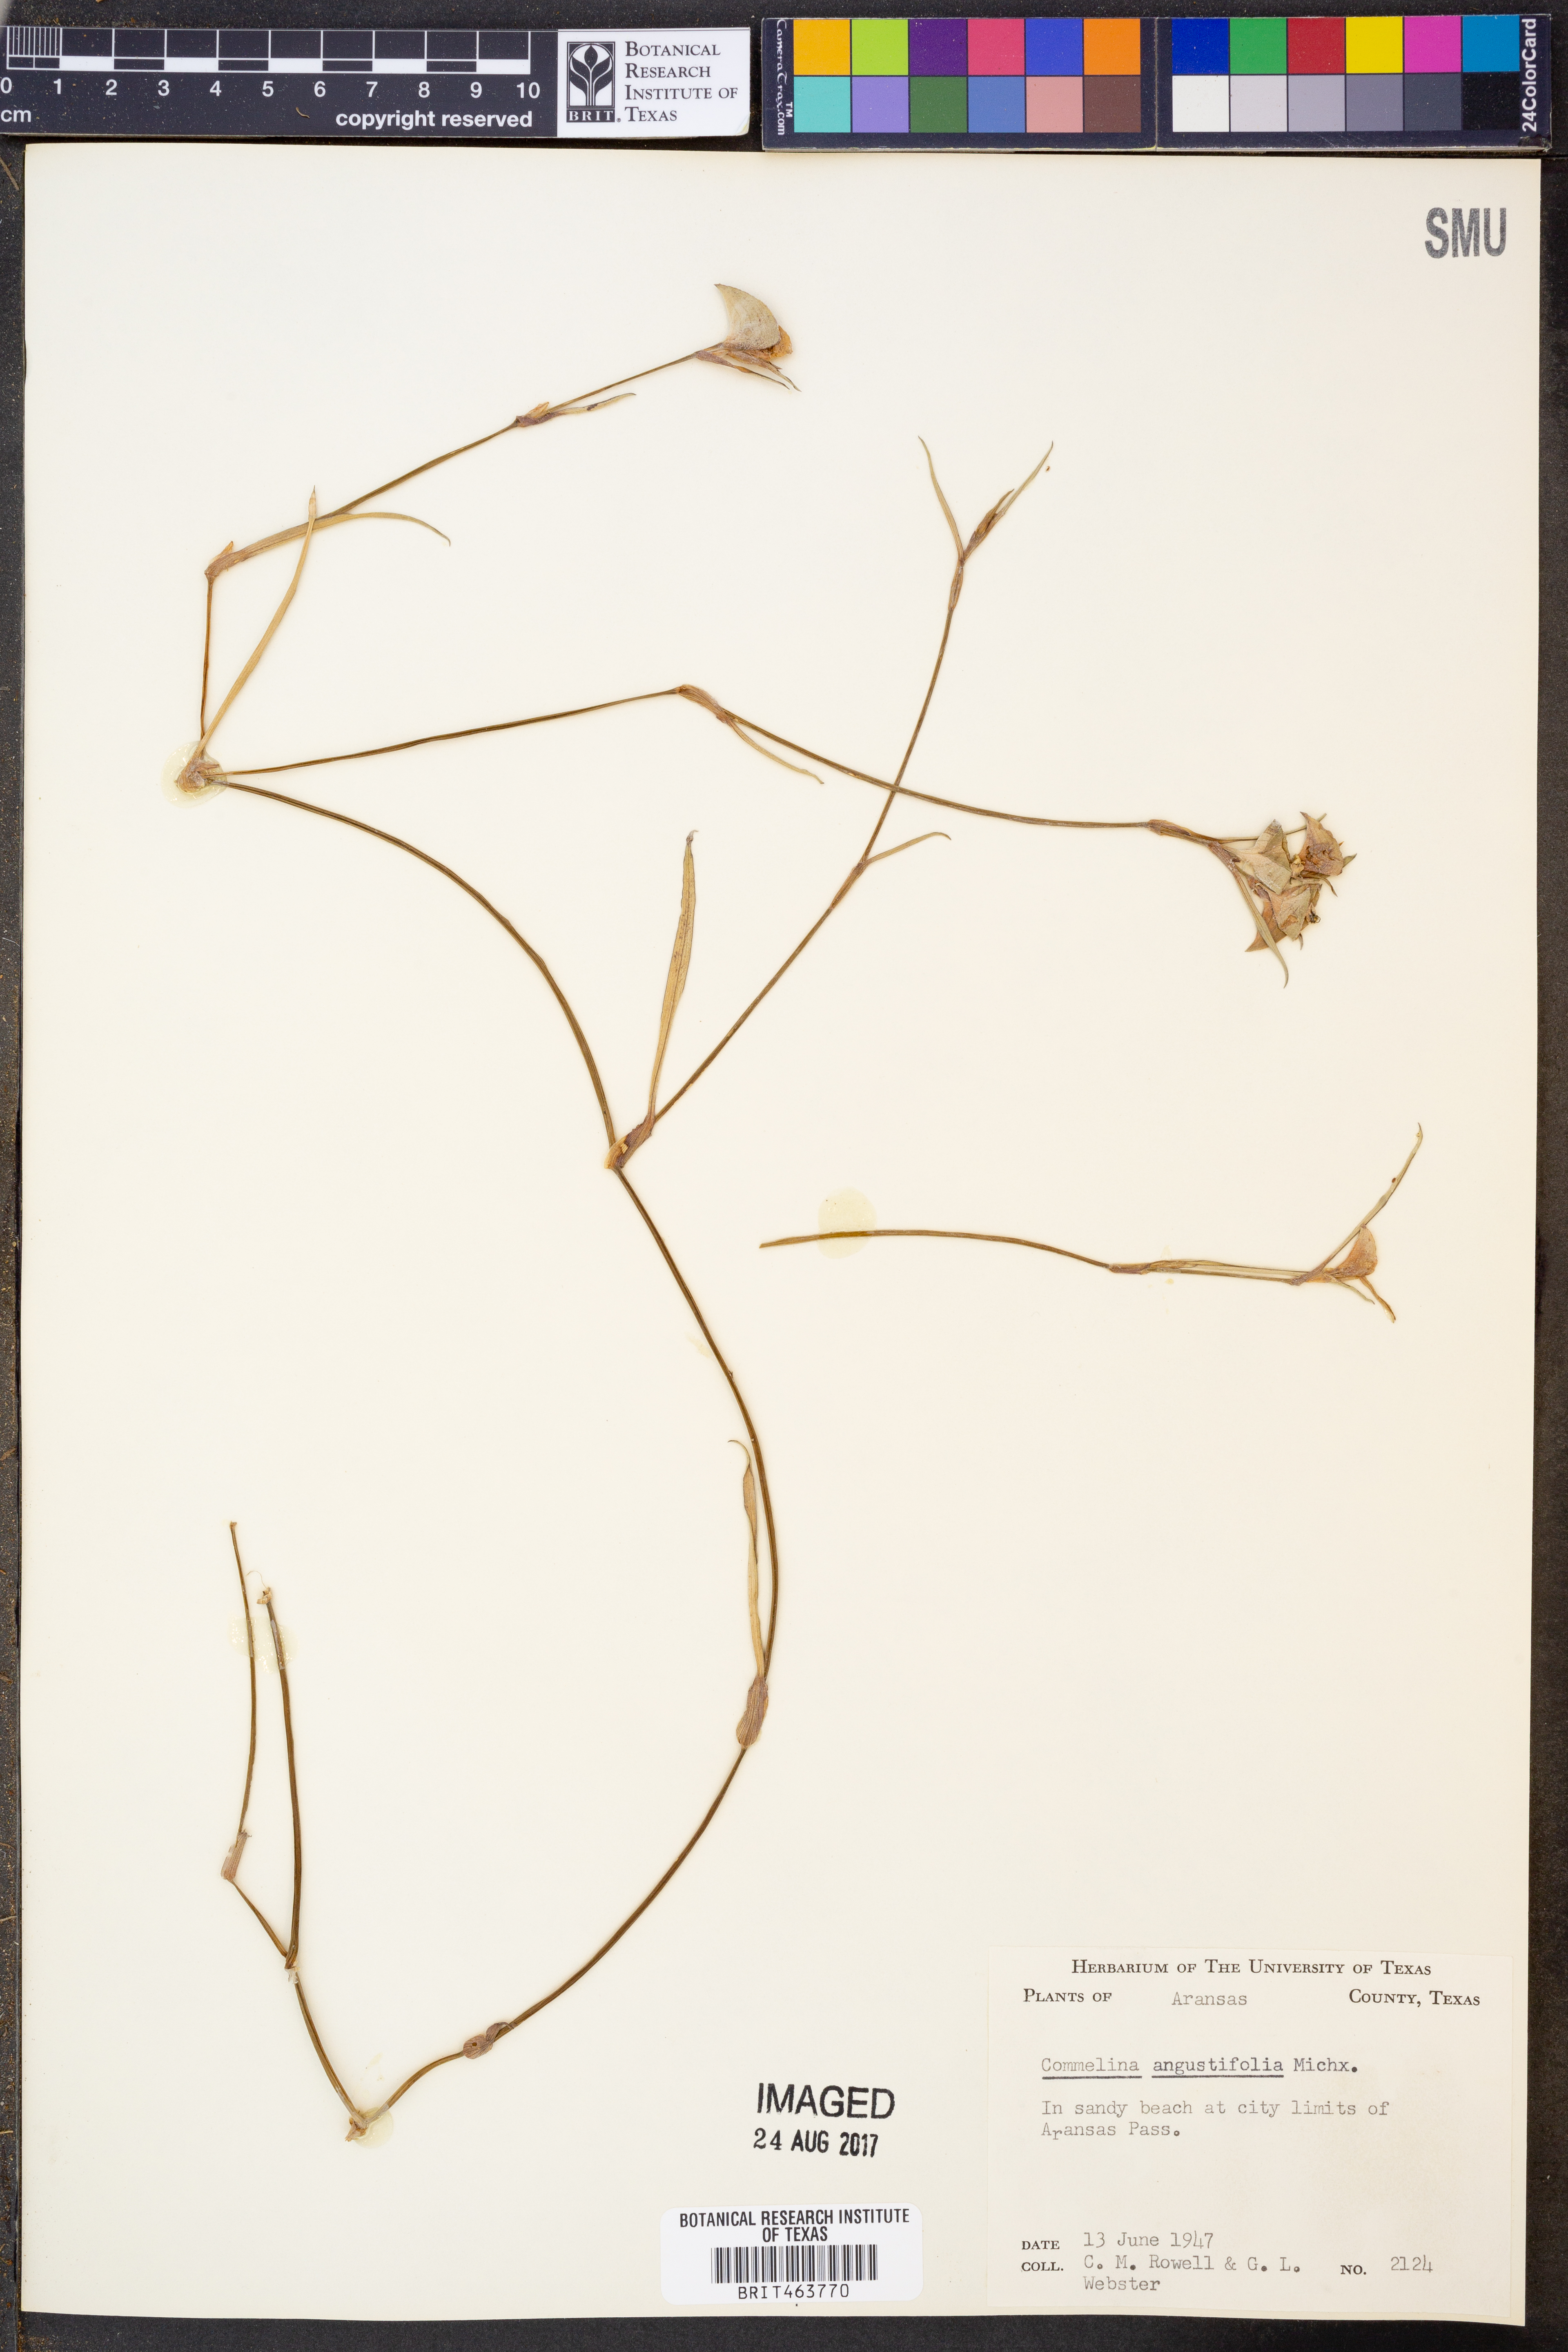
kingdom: Plantae
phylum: Tracheophyta
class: Liliopsida
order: Commelinales
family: Commelinaceae
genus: Commelina
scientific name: Commelina erecta
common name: Blousel blommetjie
